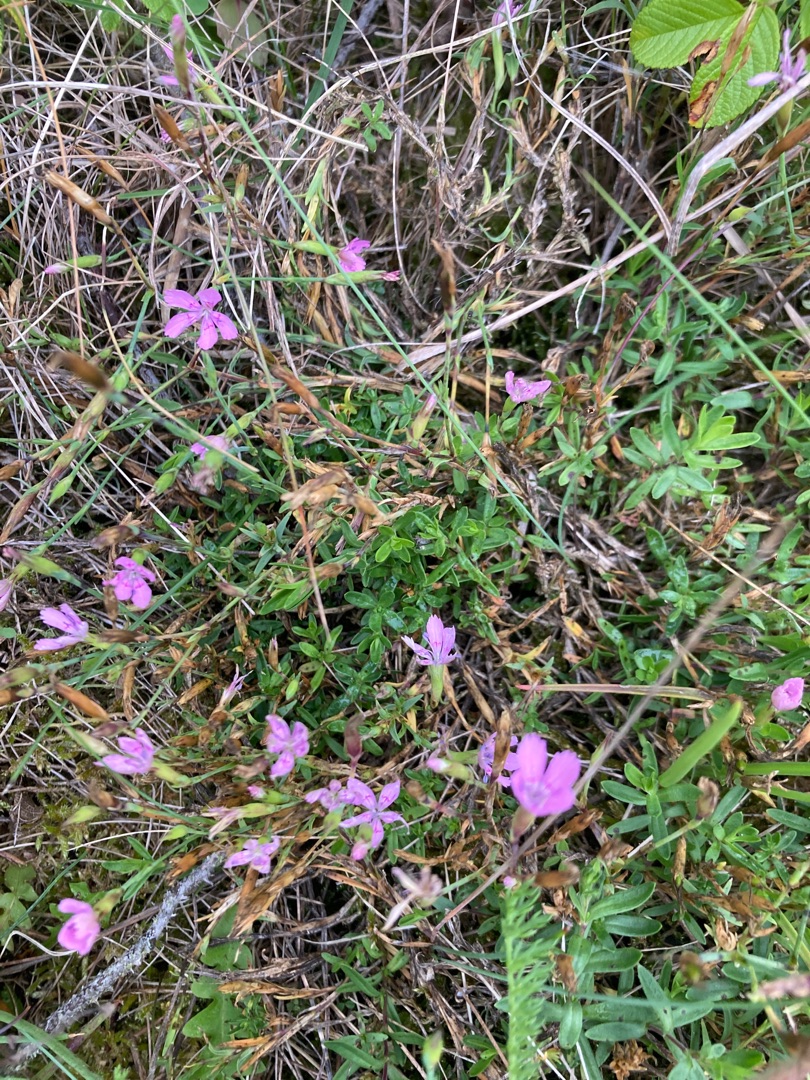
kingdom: Plantae
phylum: Tracheophyta
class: Magnoliopsida
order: Caryophyllales
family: Caryophyllaceae
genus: Dianthus
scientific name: Dianthus deltoides
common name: Bakke-nellike
